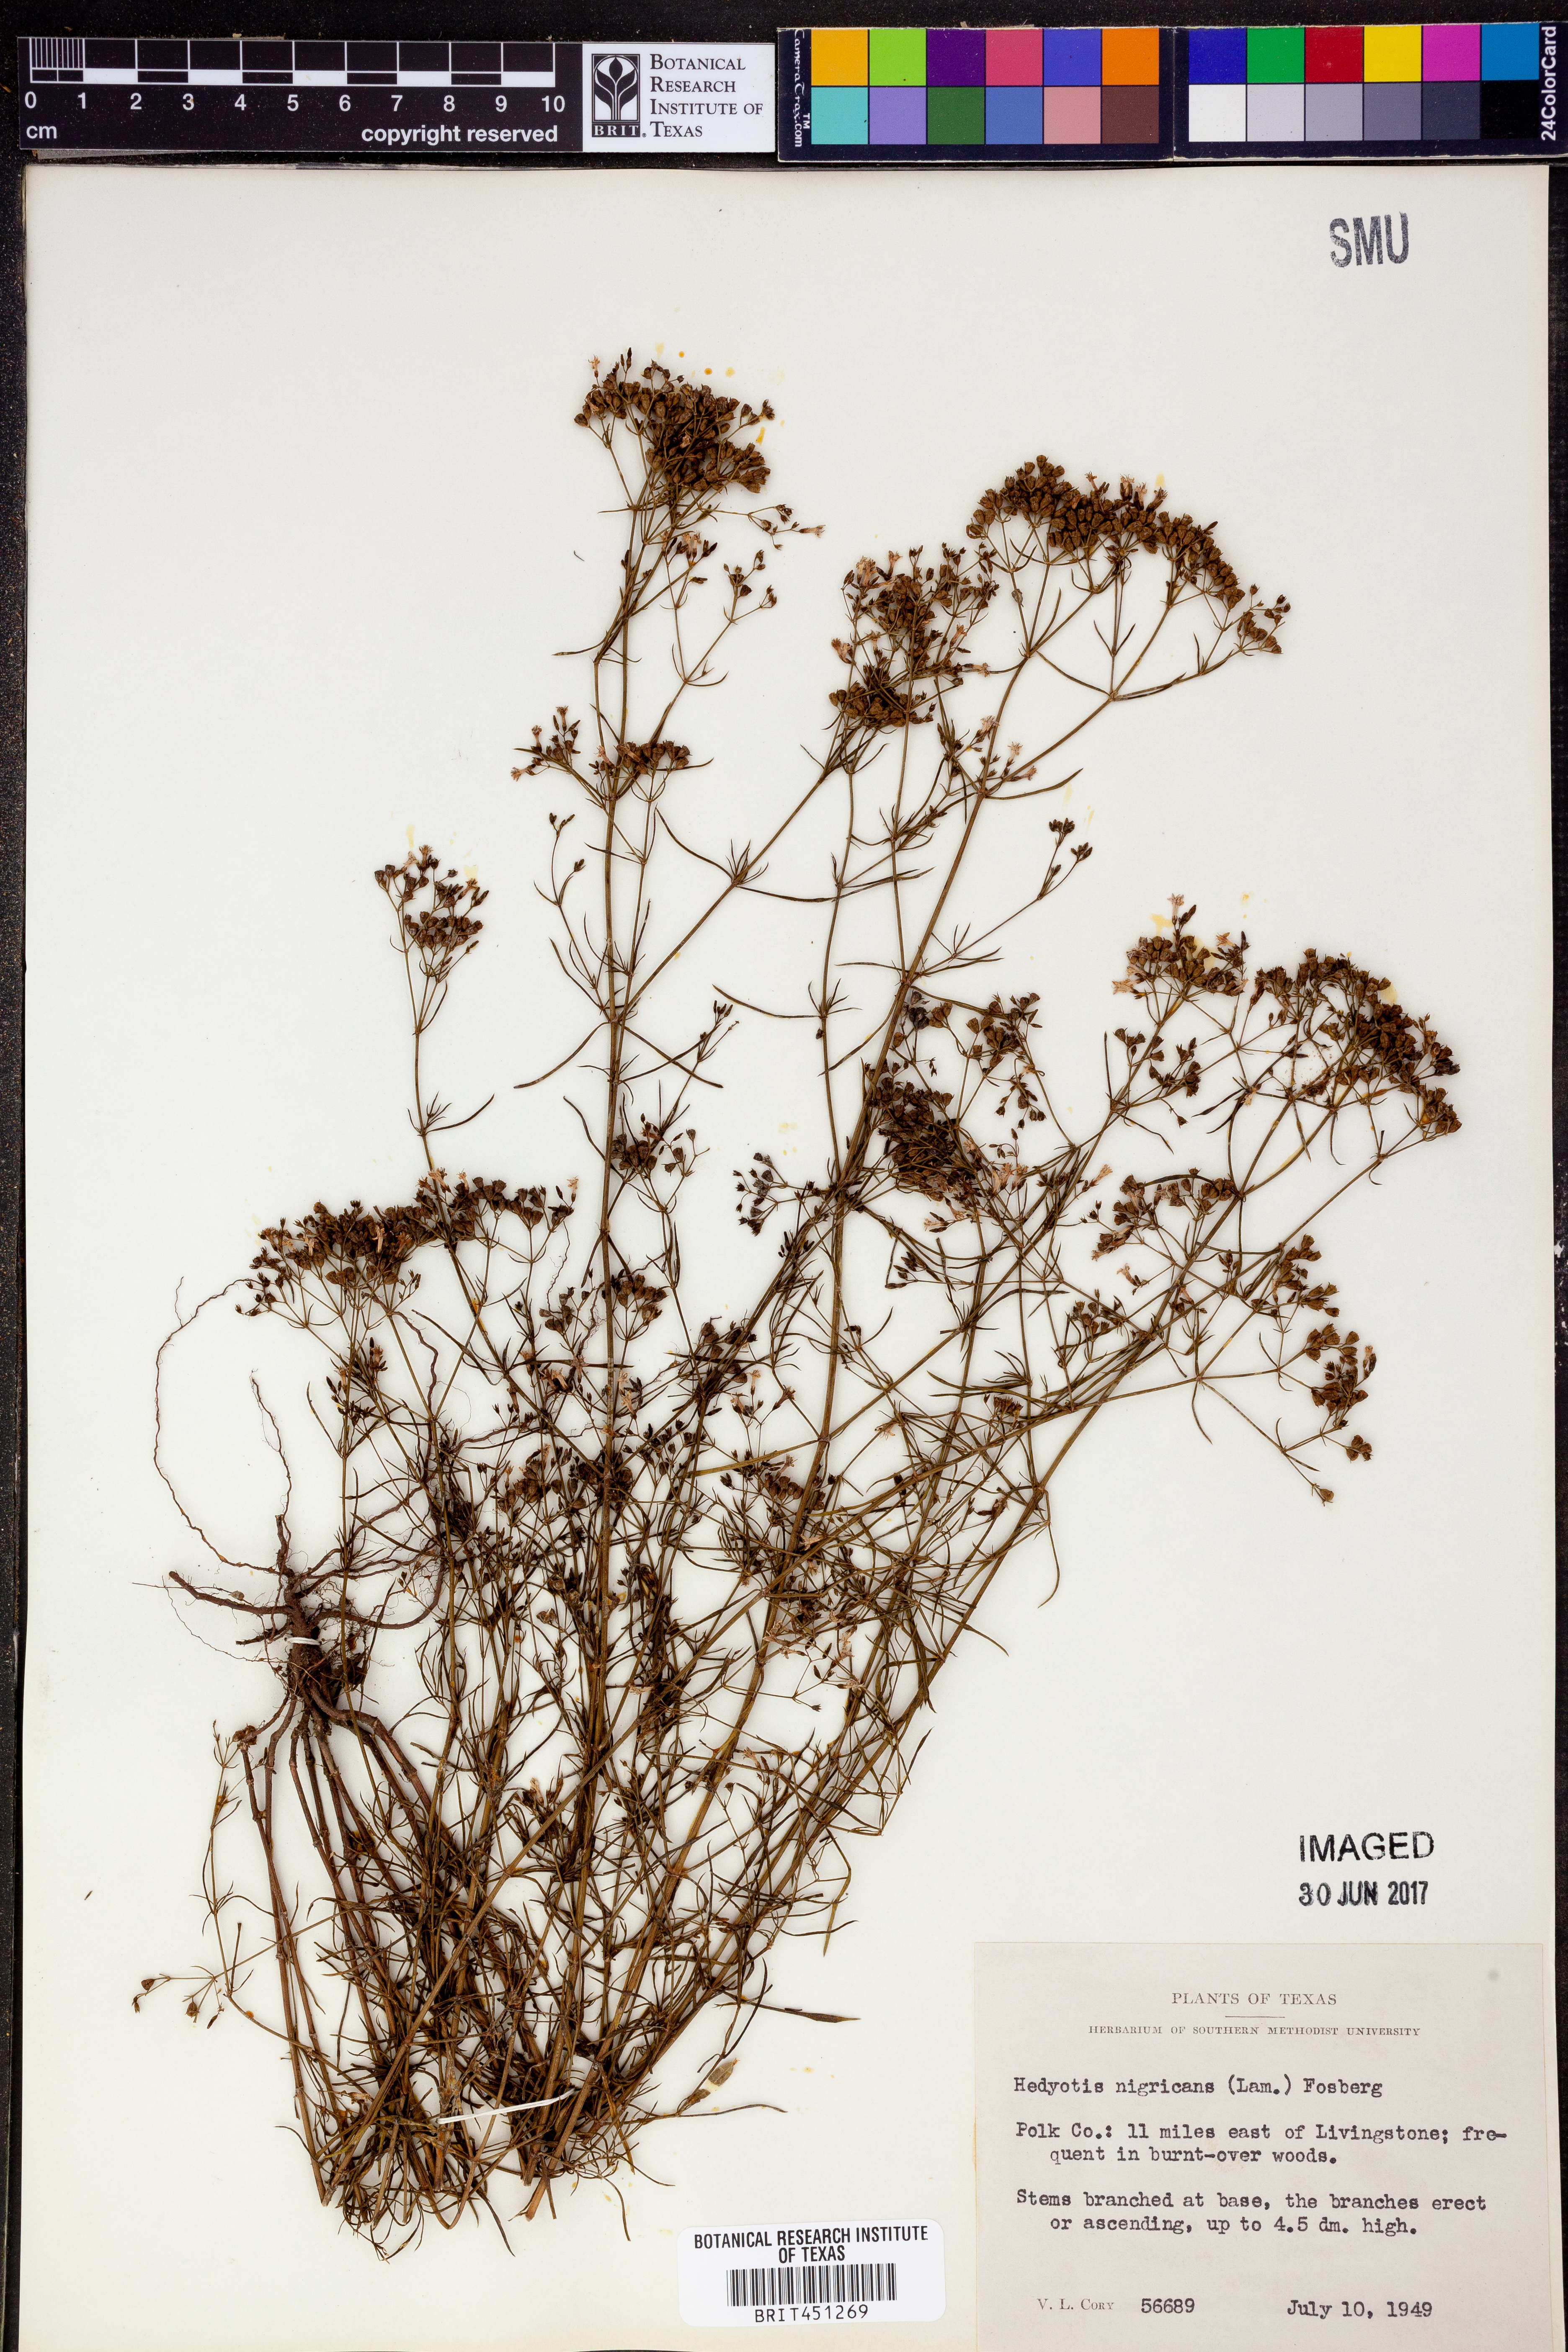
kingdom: Plantae
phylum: Tracheophyta
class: Magnoliopsida
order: Gentianales
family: Rubiaceae
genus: Stenaria
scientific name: Stenaria nigricans
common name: Diamondflowers
